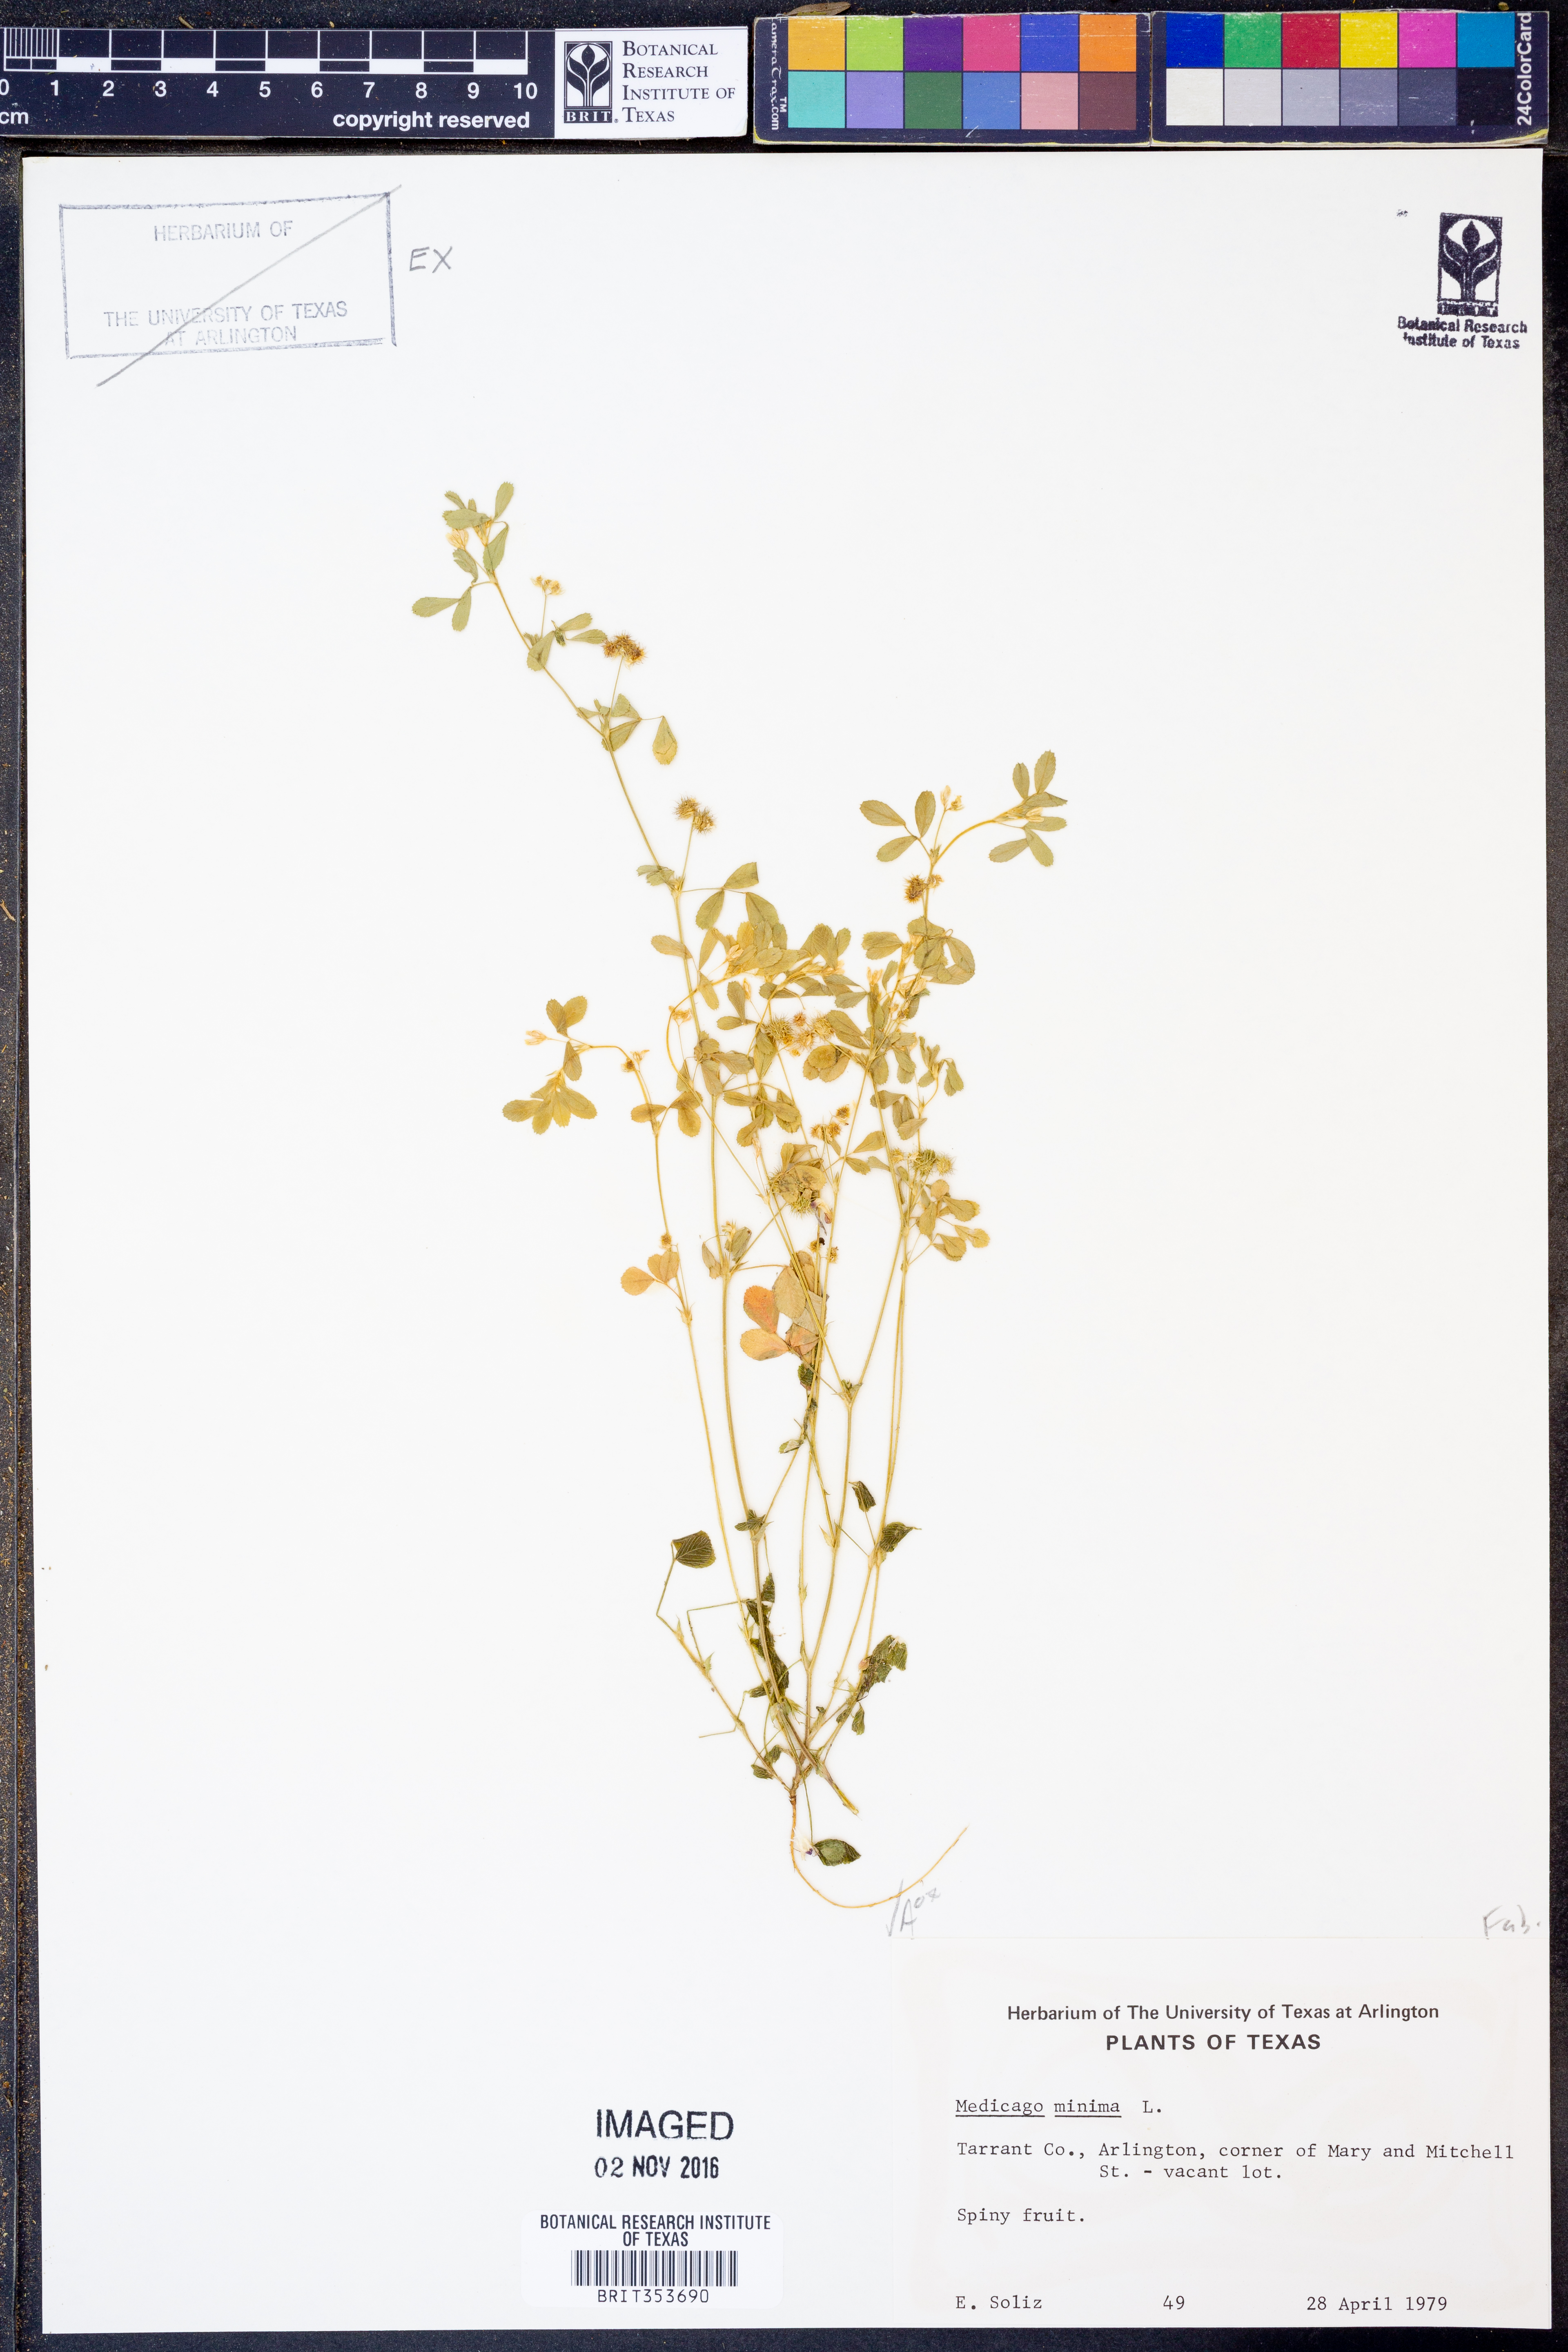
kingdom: Plantae
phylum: Tracheophyta
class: Magnoliopsida
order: Fabales
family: Fabaceae
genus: Medicago
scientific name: Medicago minima
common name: Little bur-clover
